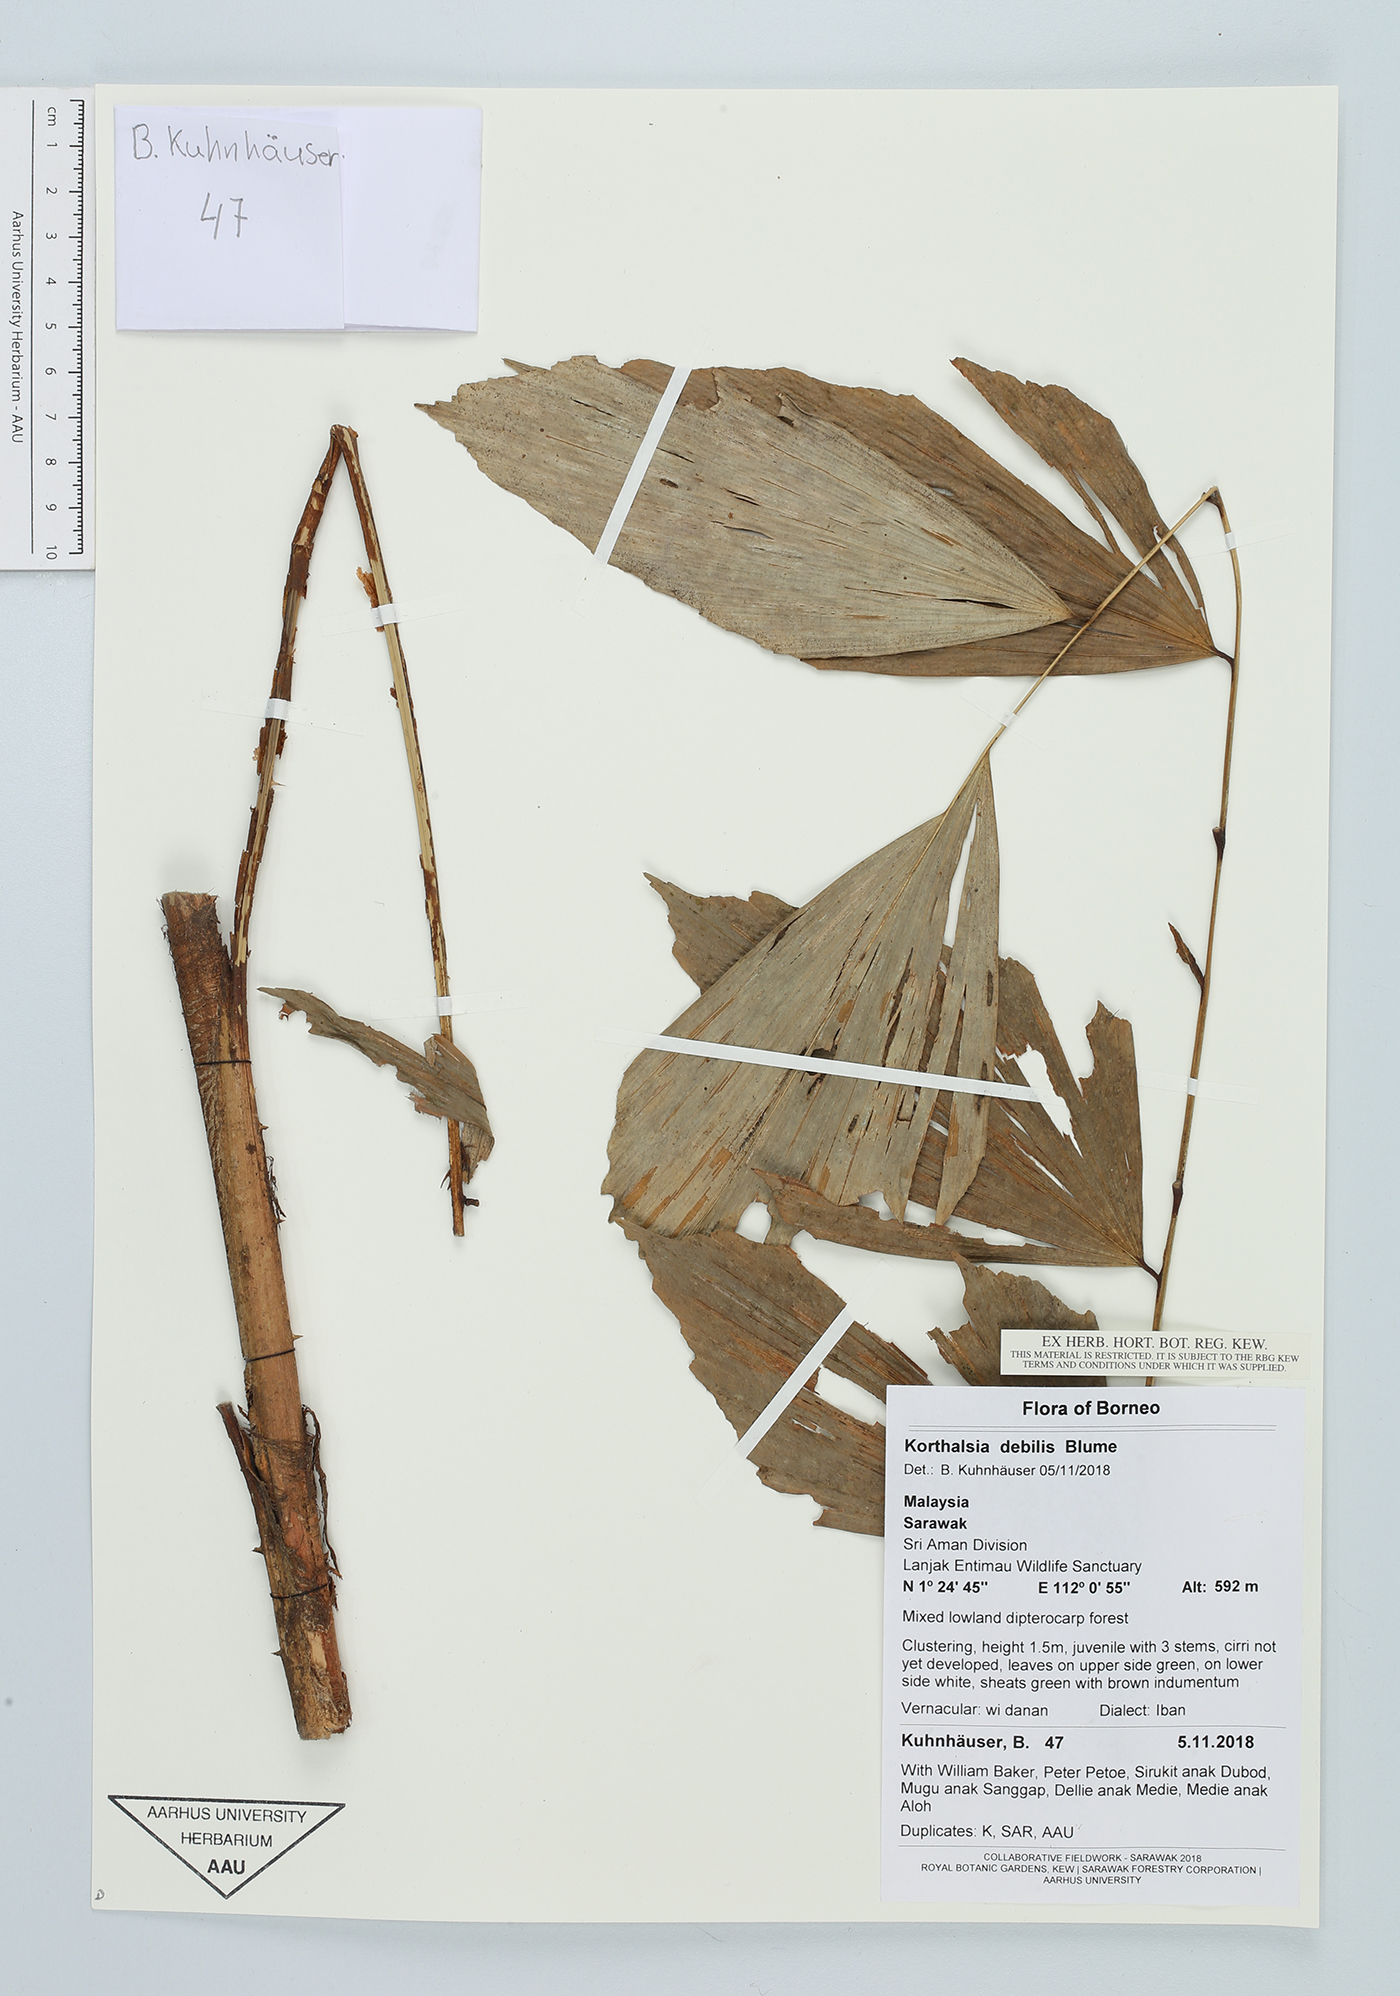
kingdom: Plantae
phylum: Tracheophyta
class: Liliopsida
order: Arecales
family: Arecaceae
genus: Korthalsia
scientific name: Korthalsia debilis
